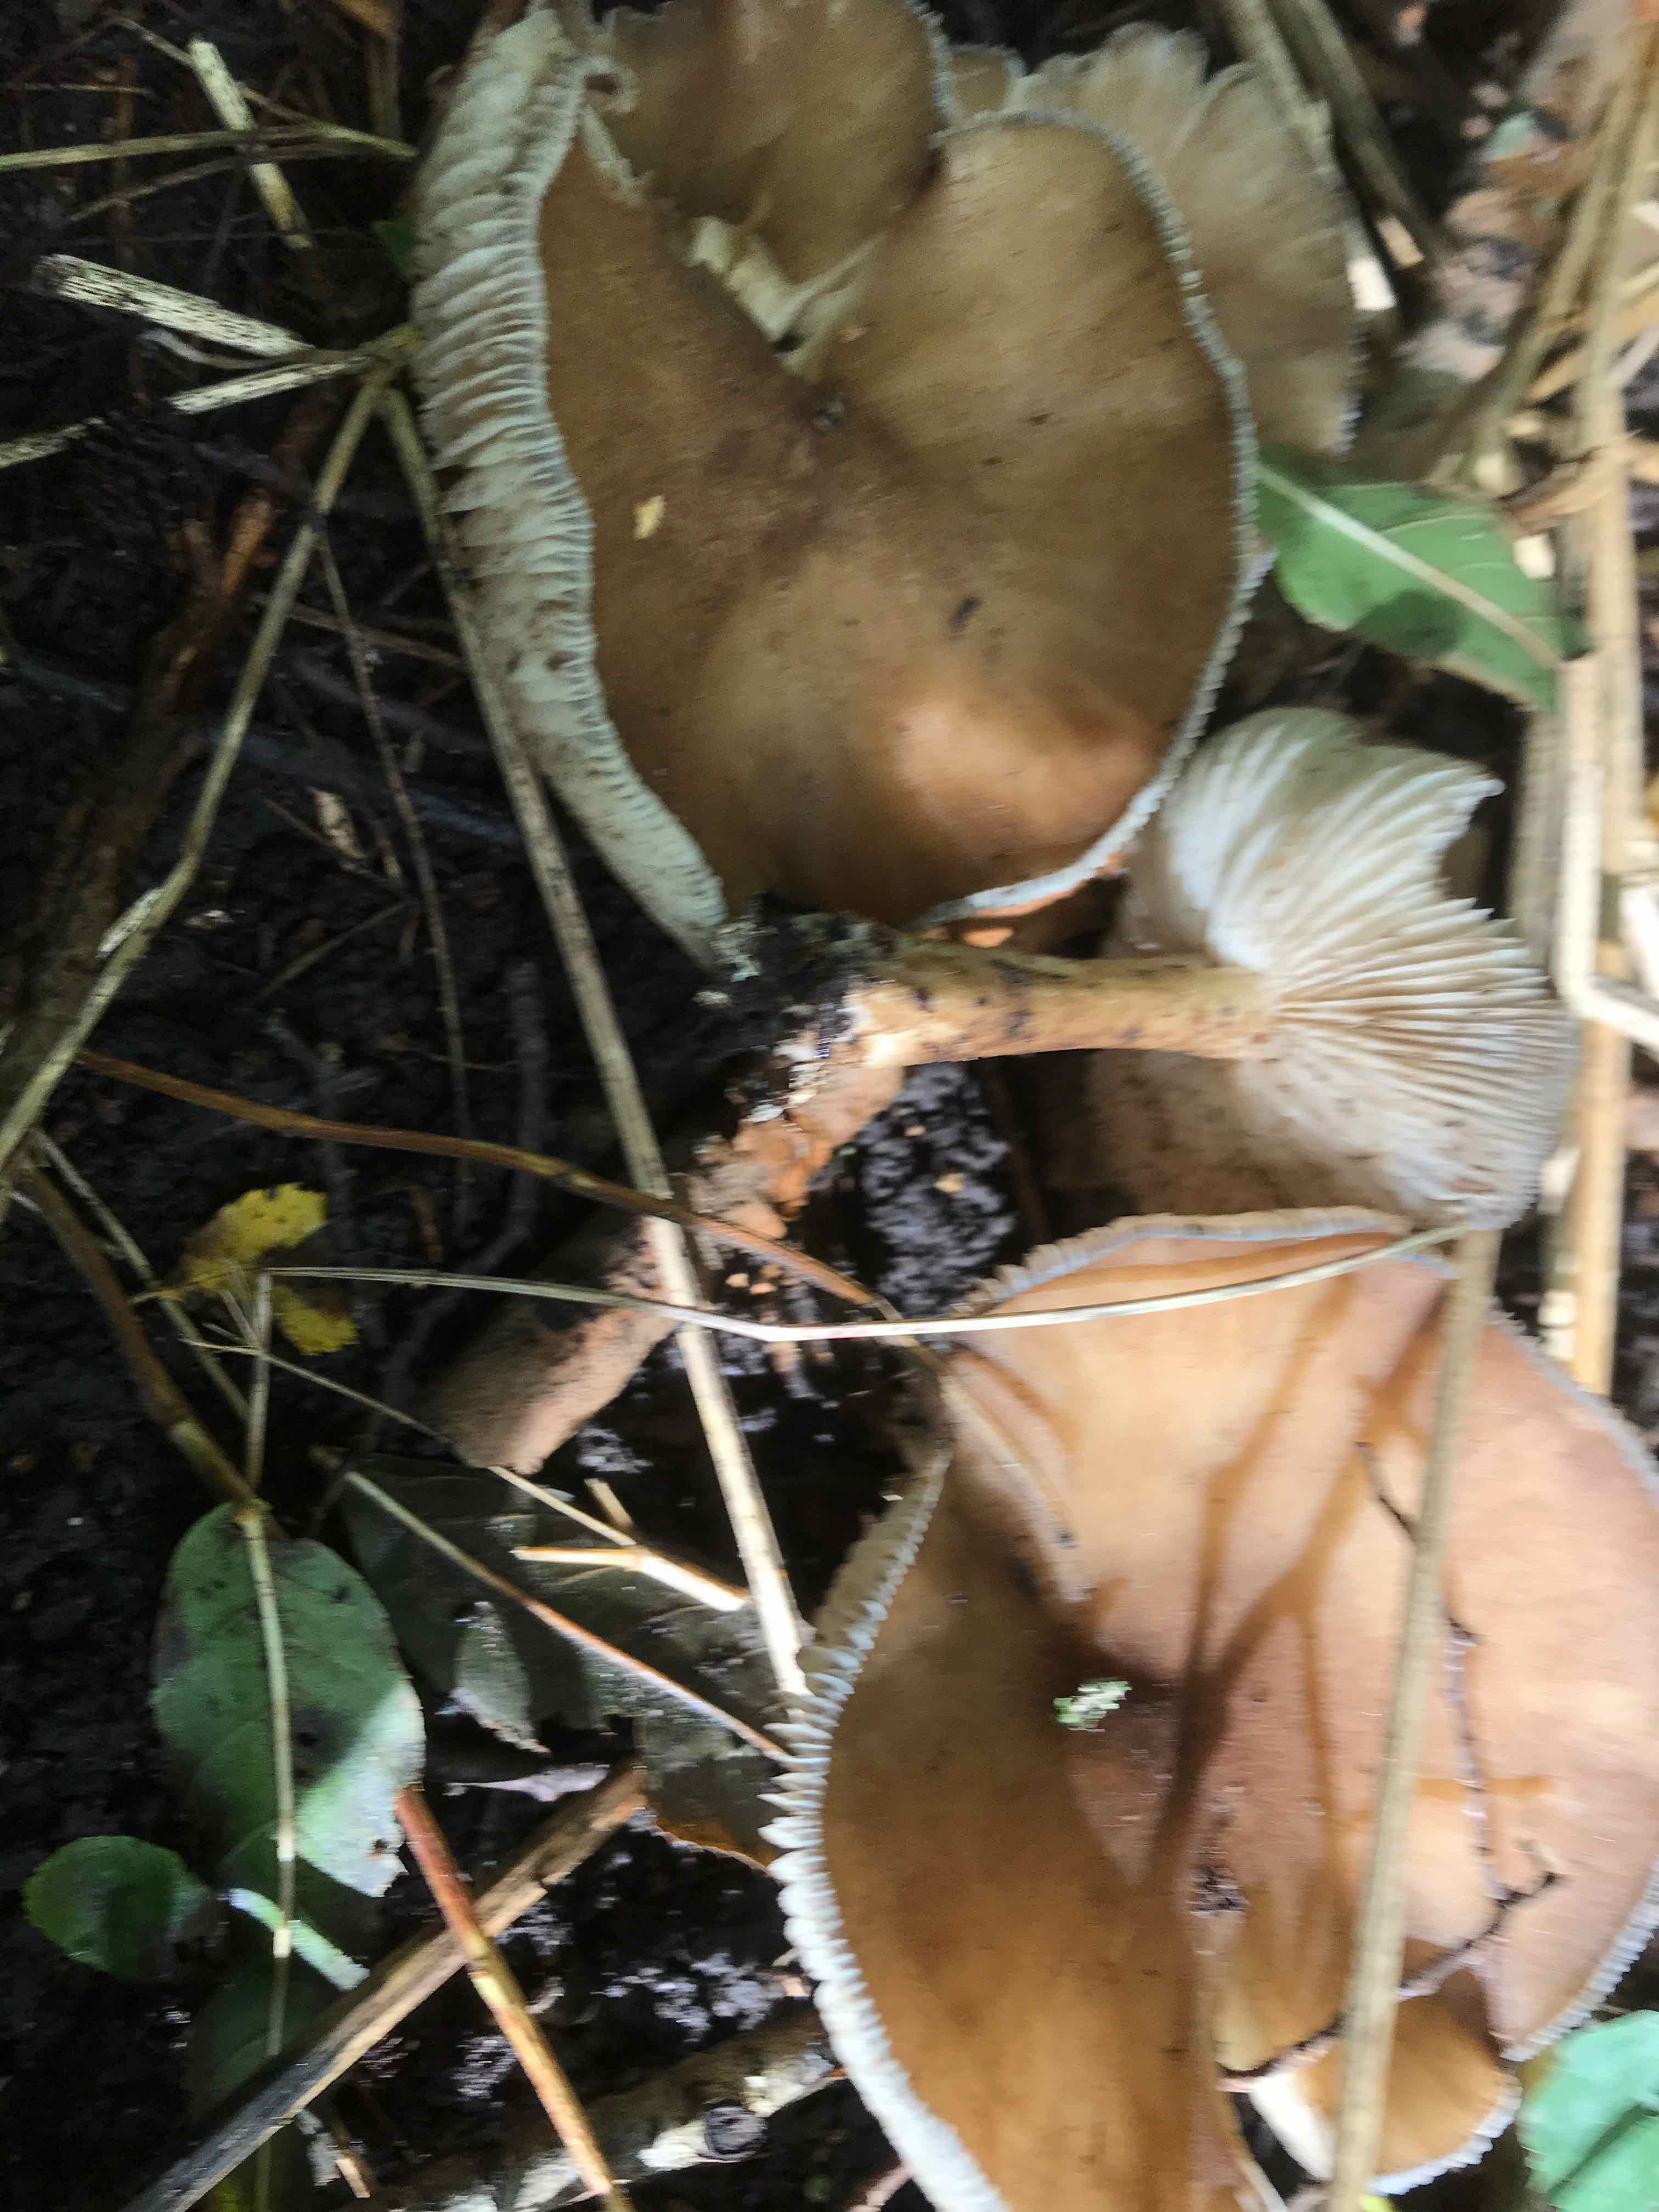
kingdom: Fungi
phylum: Basidiomycota
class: Agaricomycetes
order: Agaricales
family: Tricholomataceae
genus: Megacollybia
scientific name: Megacollybia platyphylla
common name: bredbladet væbnerhat
